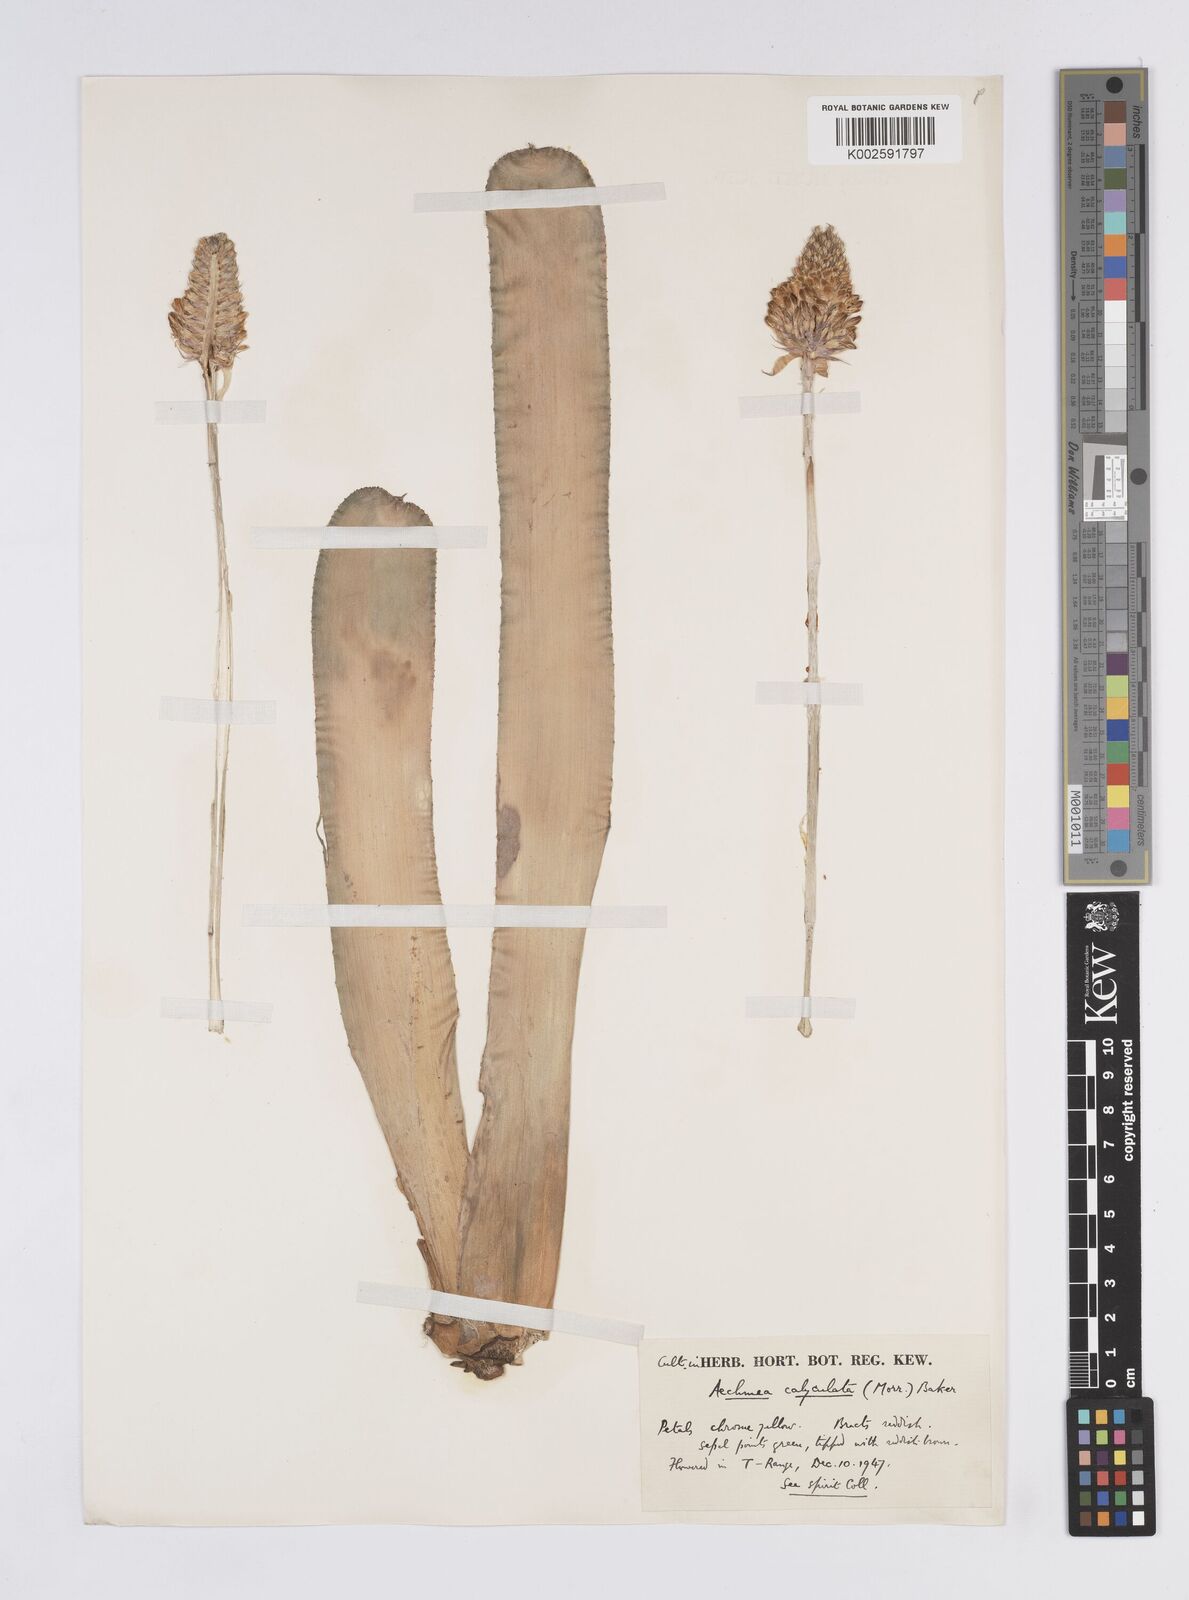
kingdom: Plantae
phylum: Tracheophyta
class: Liliopsida
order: Poales
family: Bromeliaceae
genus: Aechmea
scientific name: Aechmea calyculata
